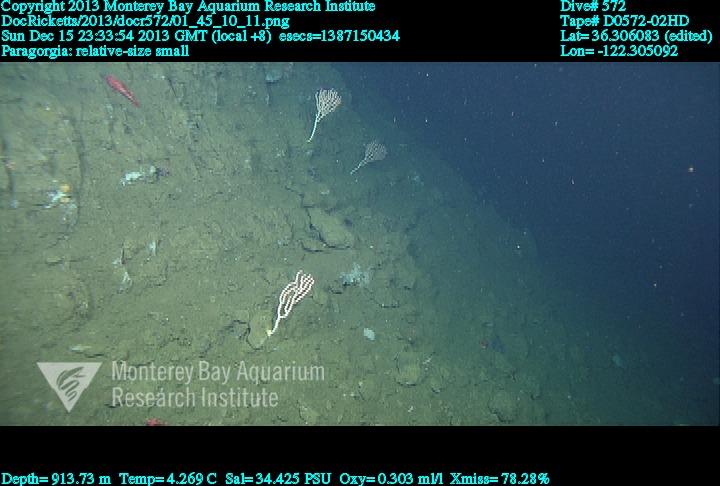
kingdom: Animalia
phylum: Cnidaria
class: Anthozoa
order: Scleralcyonacea
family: Coralliidae
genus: Sibogagorgia
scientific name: Sibogagorgia cauliflora
